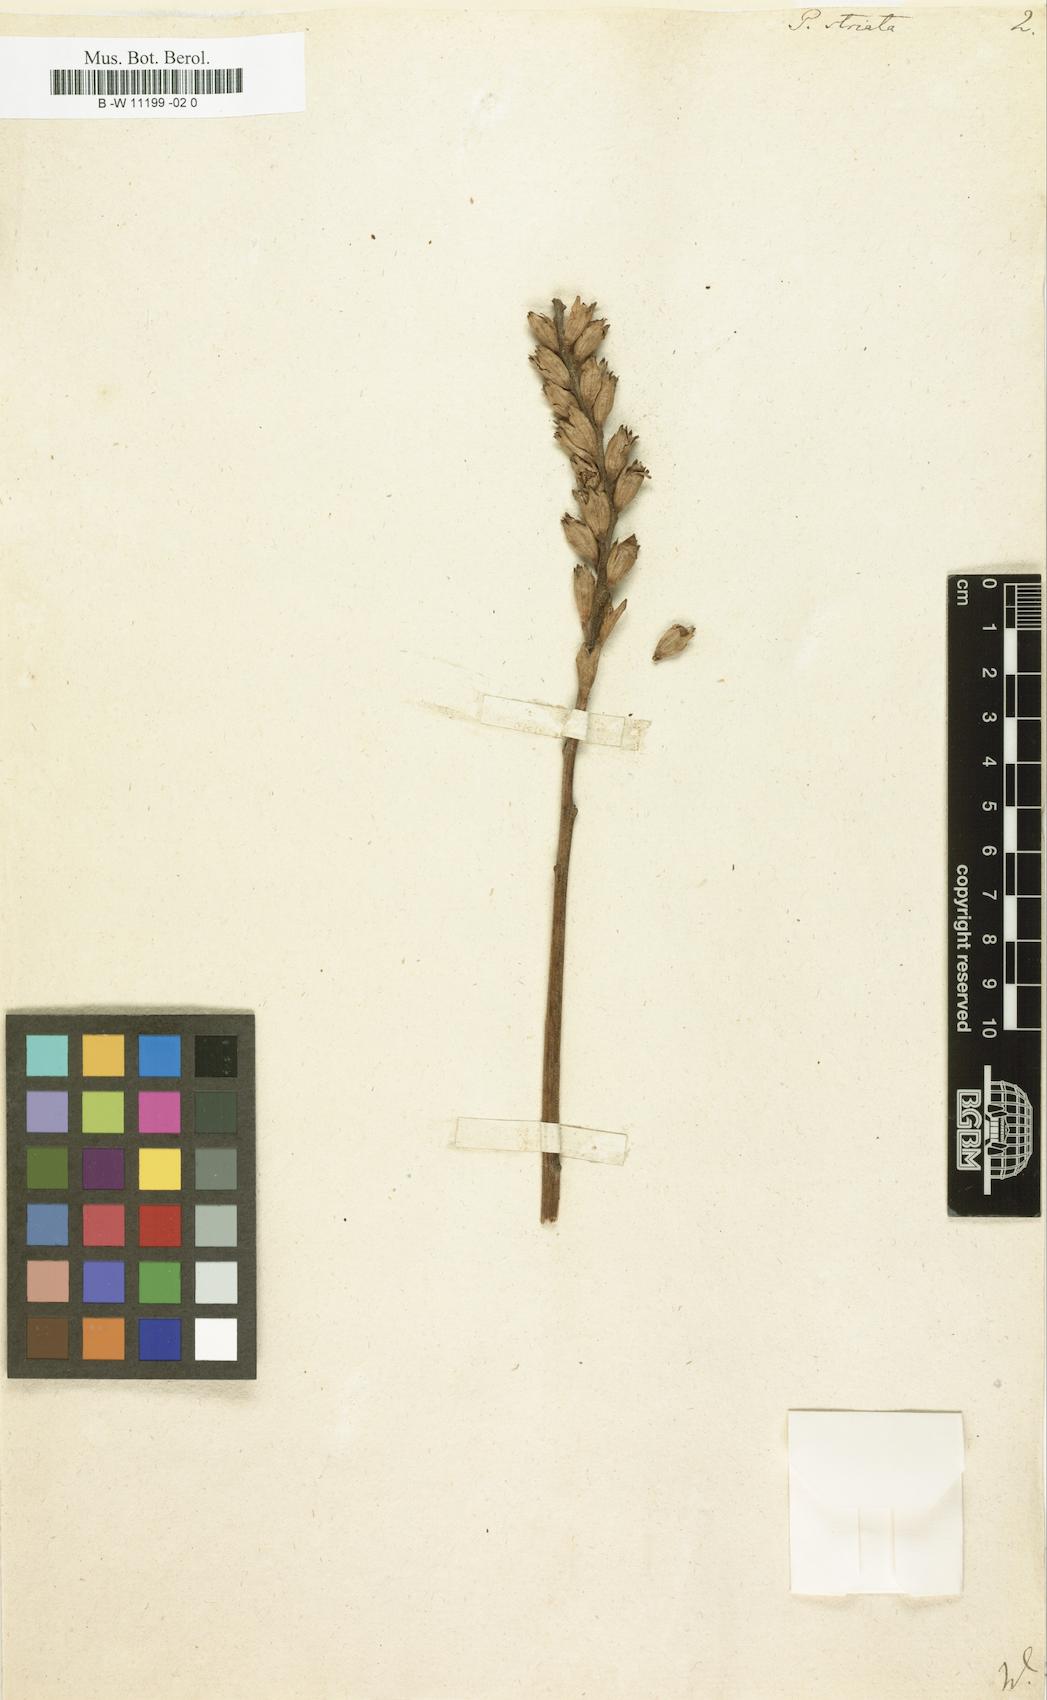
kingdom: Plantae
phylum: Tracheophyta
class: Magnoliopsida
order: Lamiales
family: Orobanchaceae
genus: Pedicularis
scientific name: Pedicularis striata
